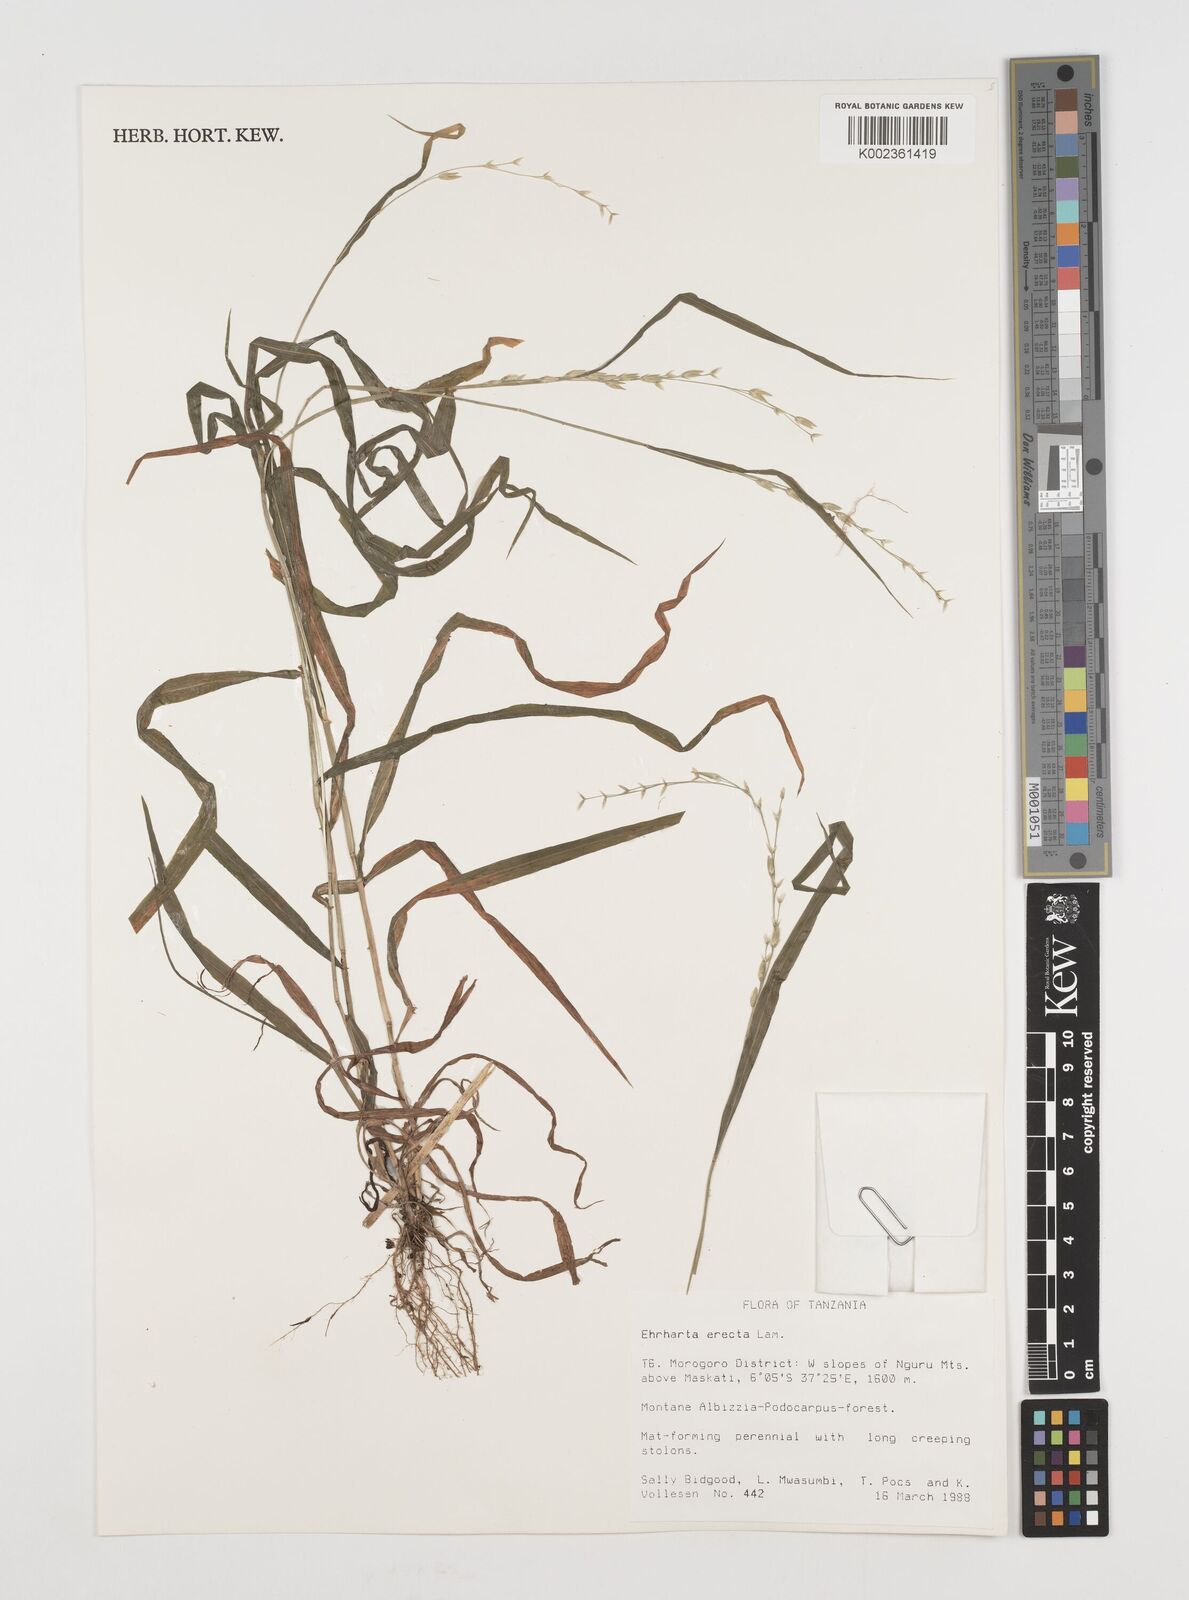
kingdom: Plantae
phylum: Tracheophyta
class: Liliopsida
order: Poales
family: Poaceae
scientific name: Poaceae
